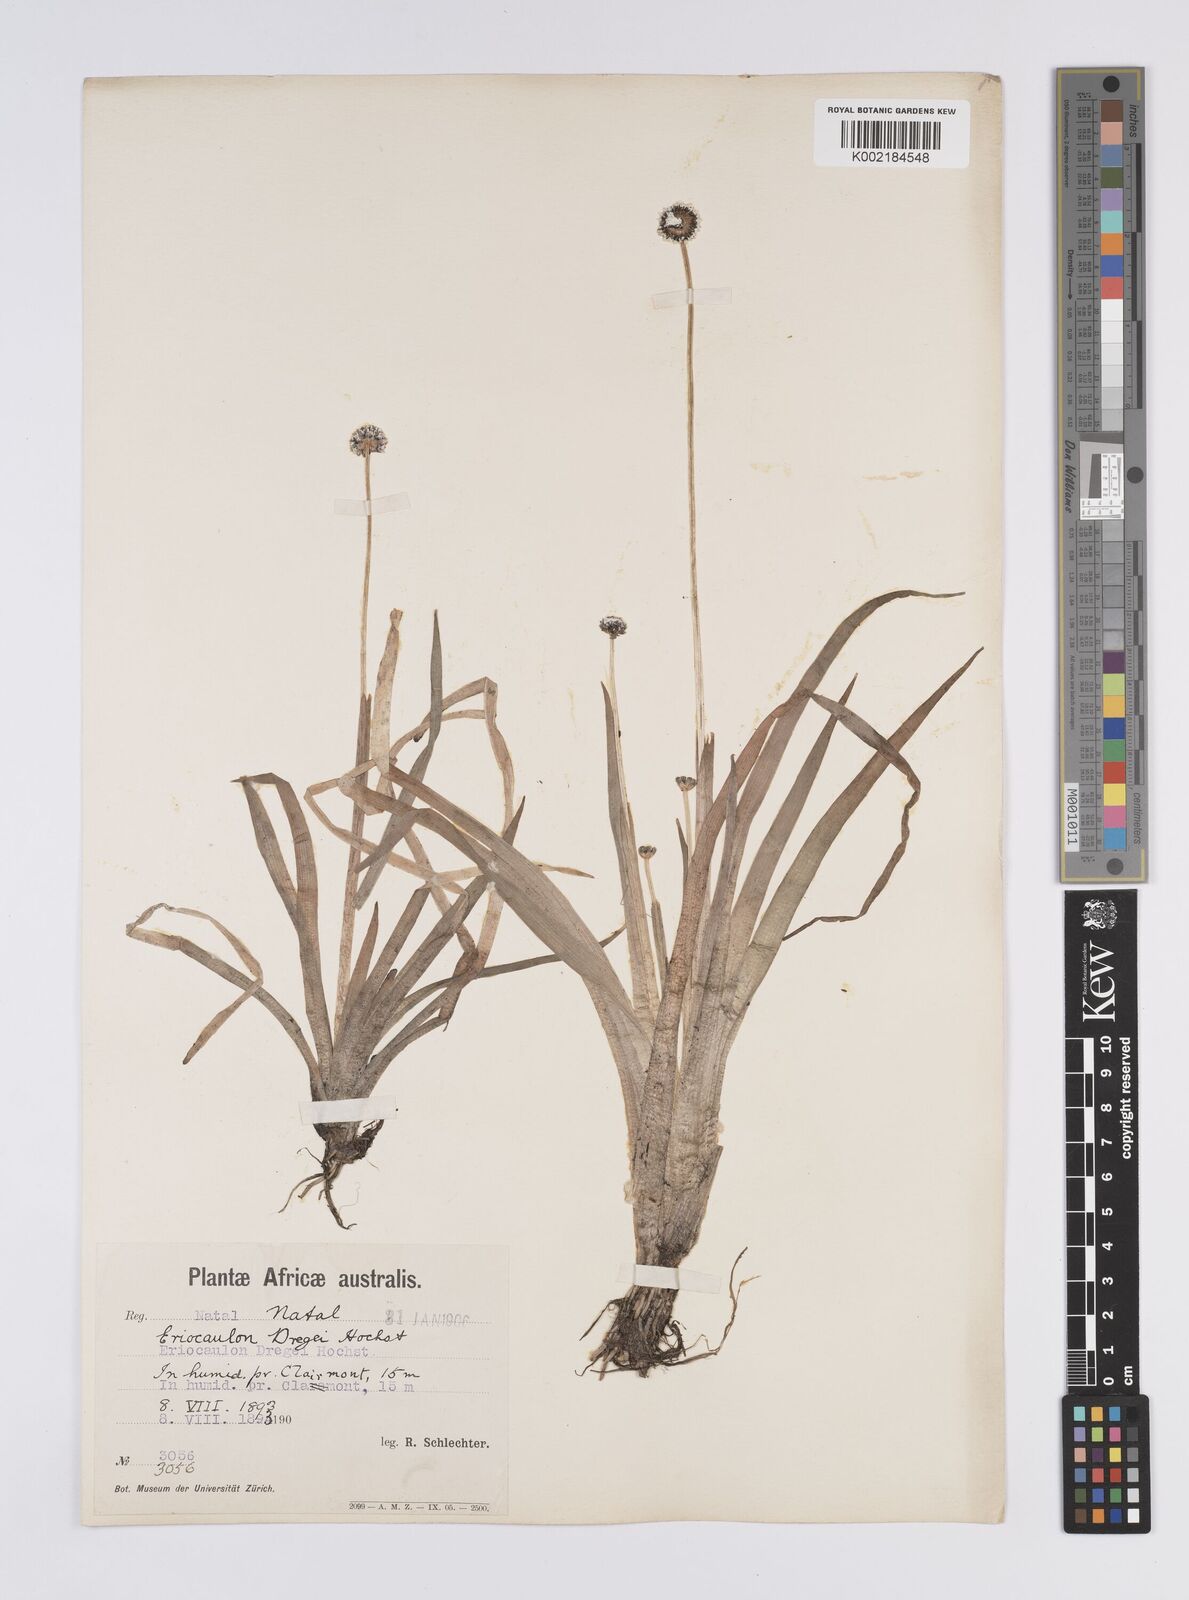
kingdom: Plantae
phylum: Tracheophyta
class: Liliopsida
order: Poales
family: Eriocaulaceae
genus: Eriocaulon
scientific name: Eriocaulon dregei
